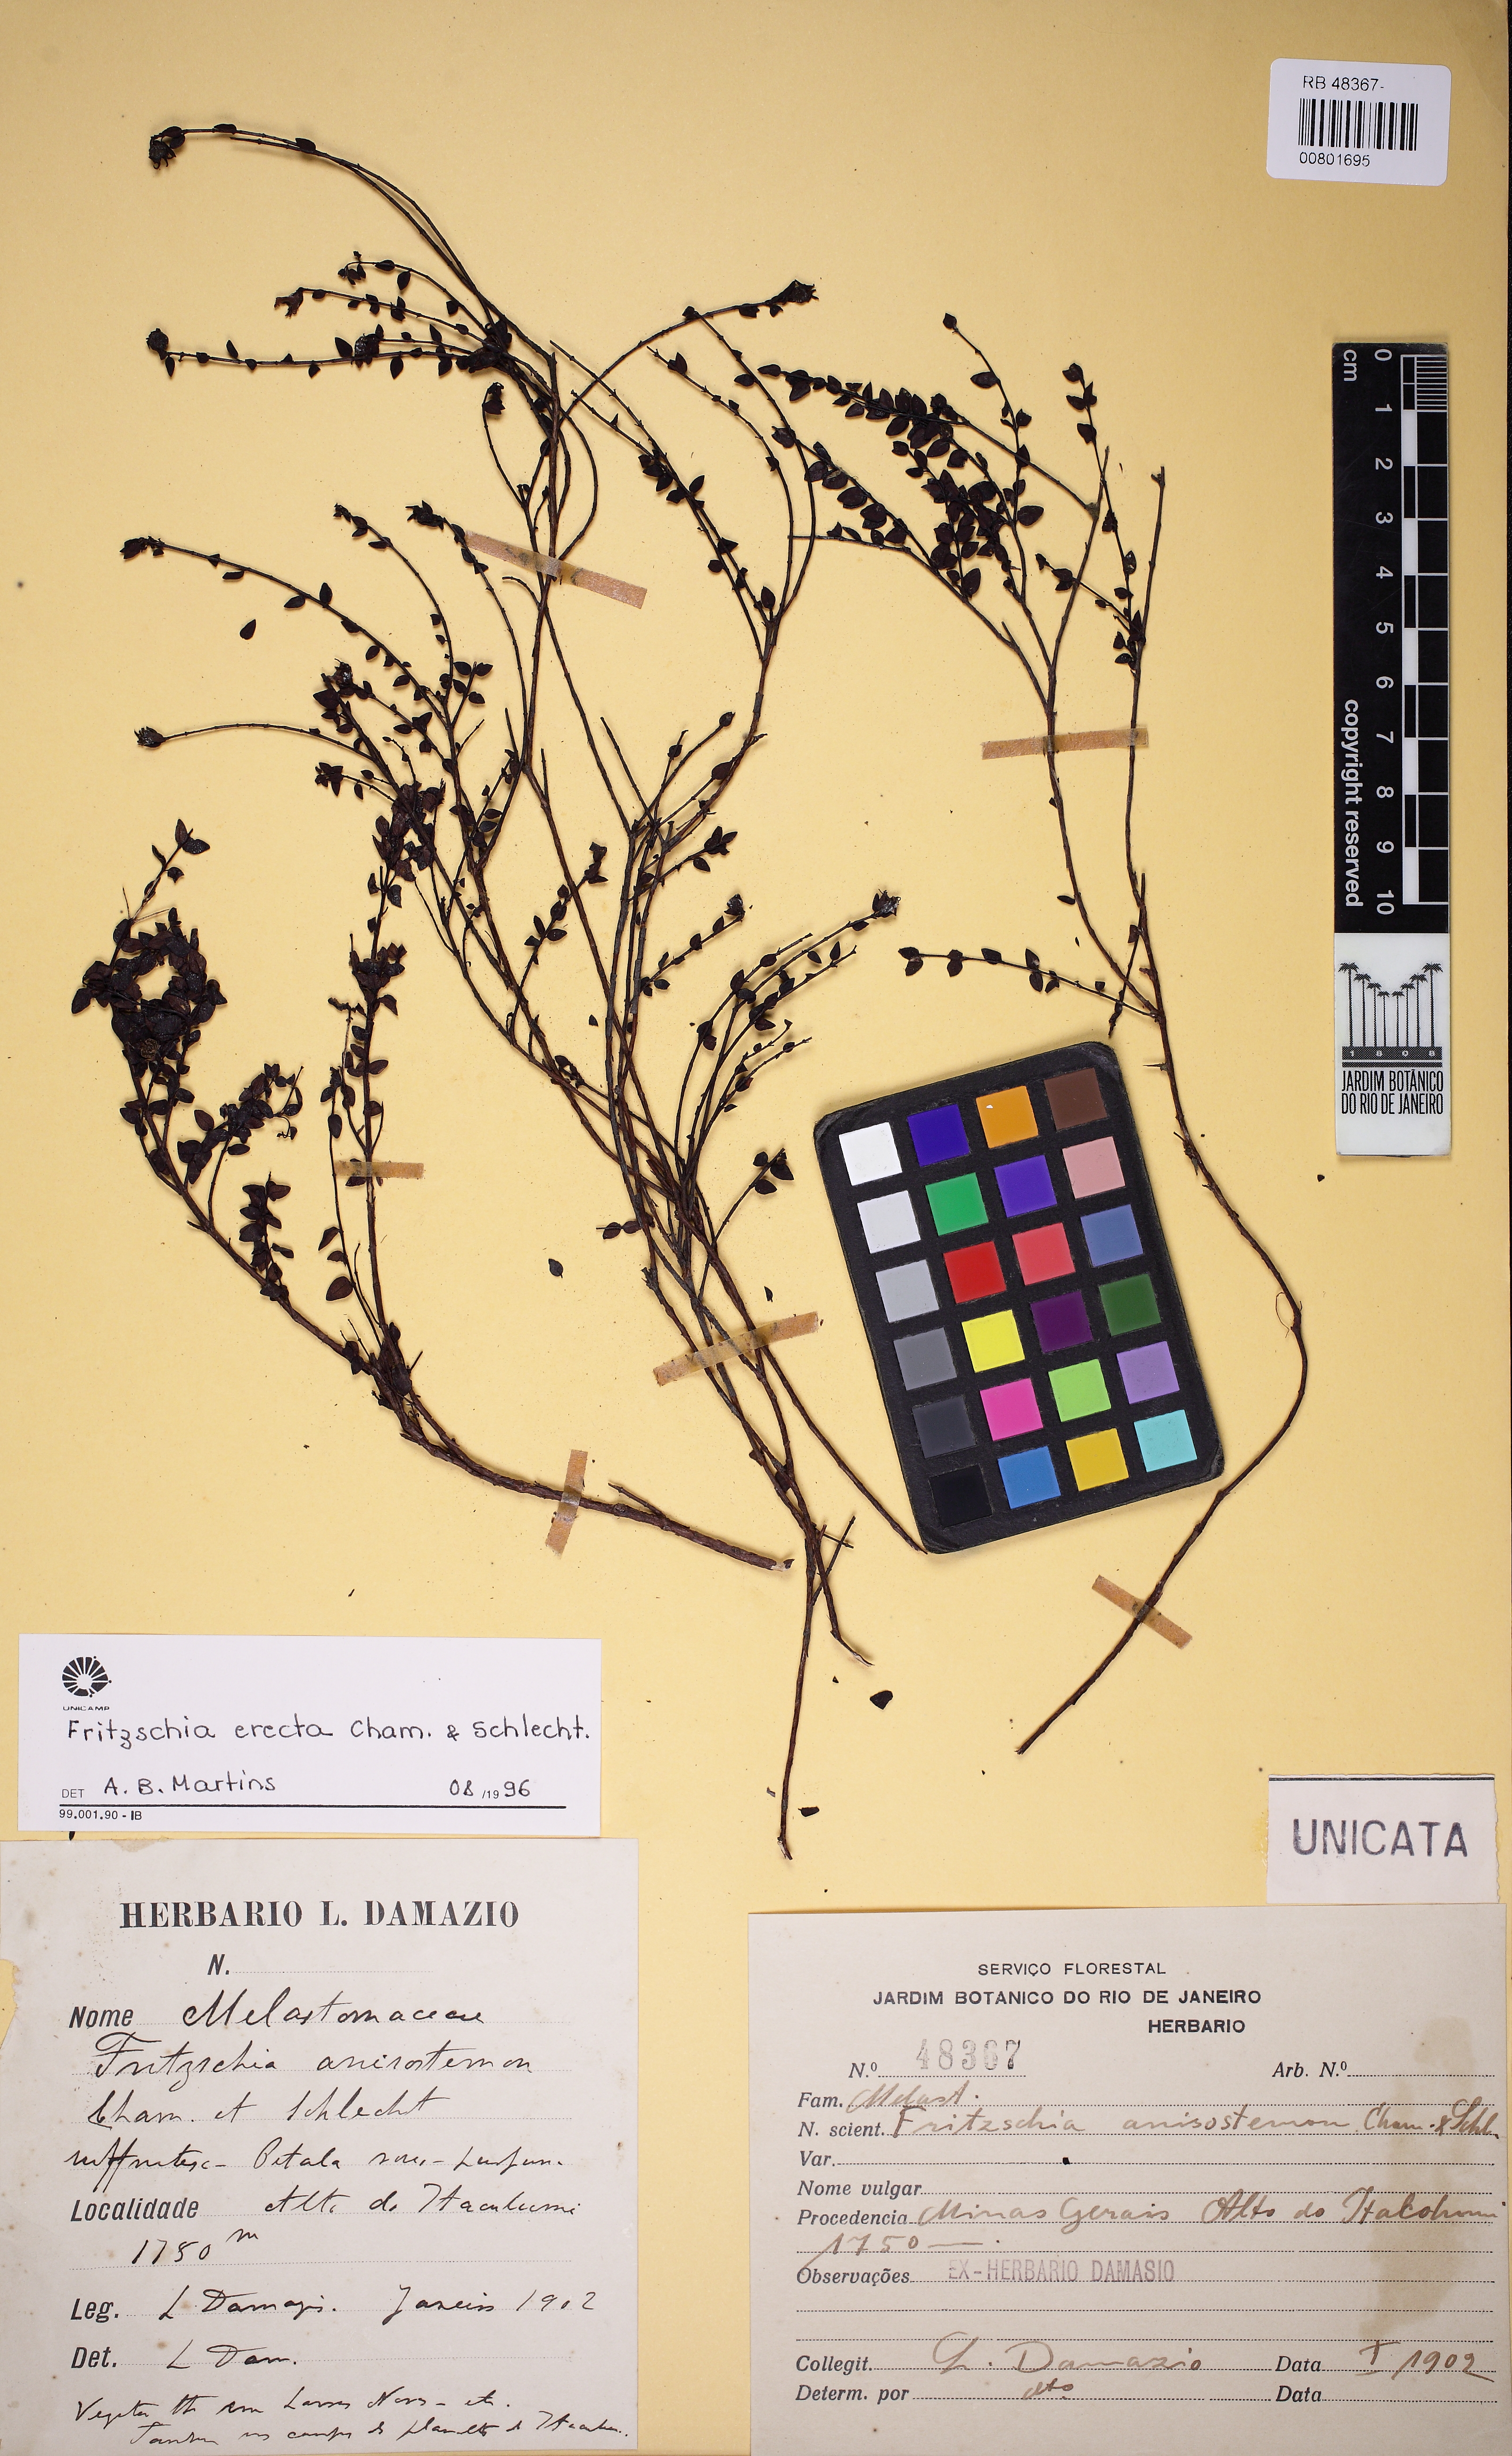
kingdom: Plantae
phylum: Tracheophyta
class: Magnoliopsida
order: Myrtales
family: Melastomataceae
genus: Fritzschia
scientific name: Fritzschia erecta
